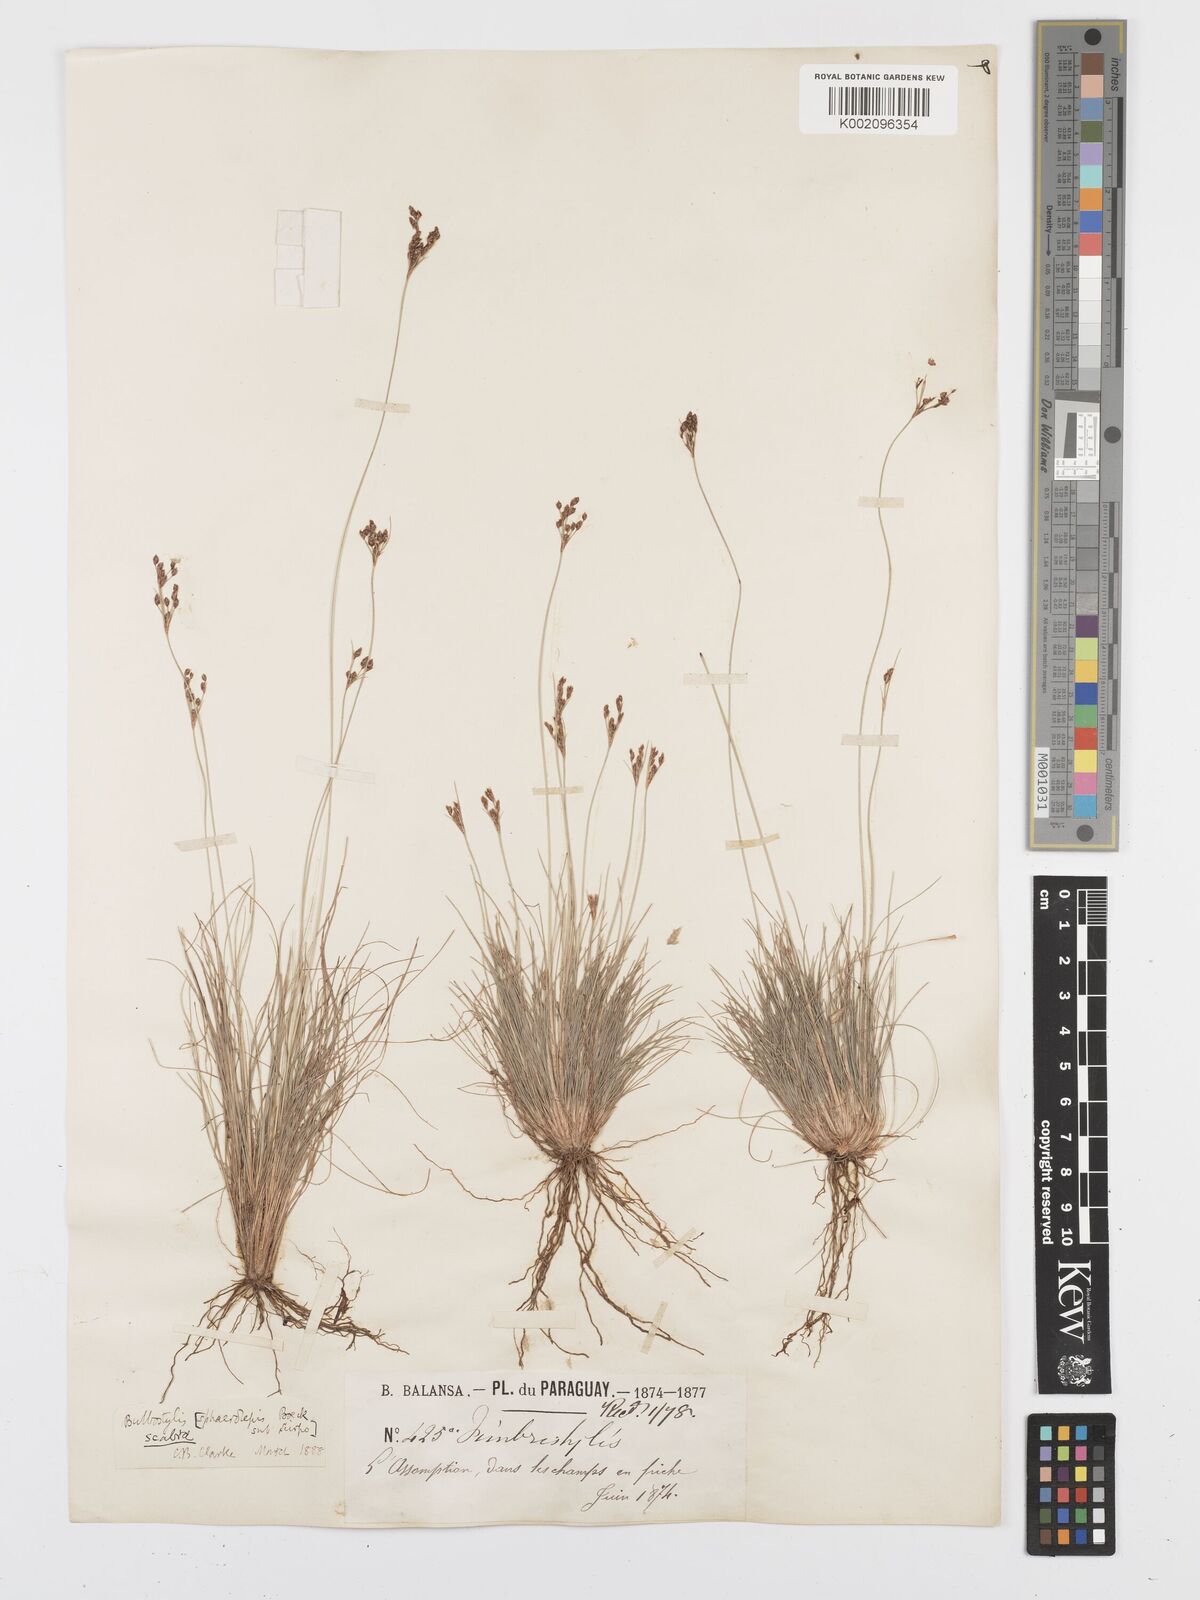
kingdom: Plantae
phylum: Tracheophyta
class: Liliopsida
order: Poales
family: Cyperaceae
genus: Bulbostylis
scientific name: Bulbostylis scabra
